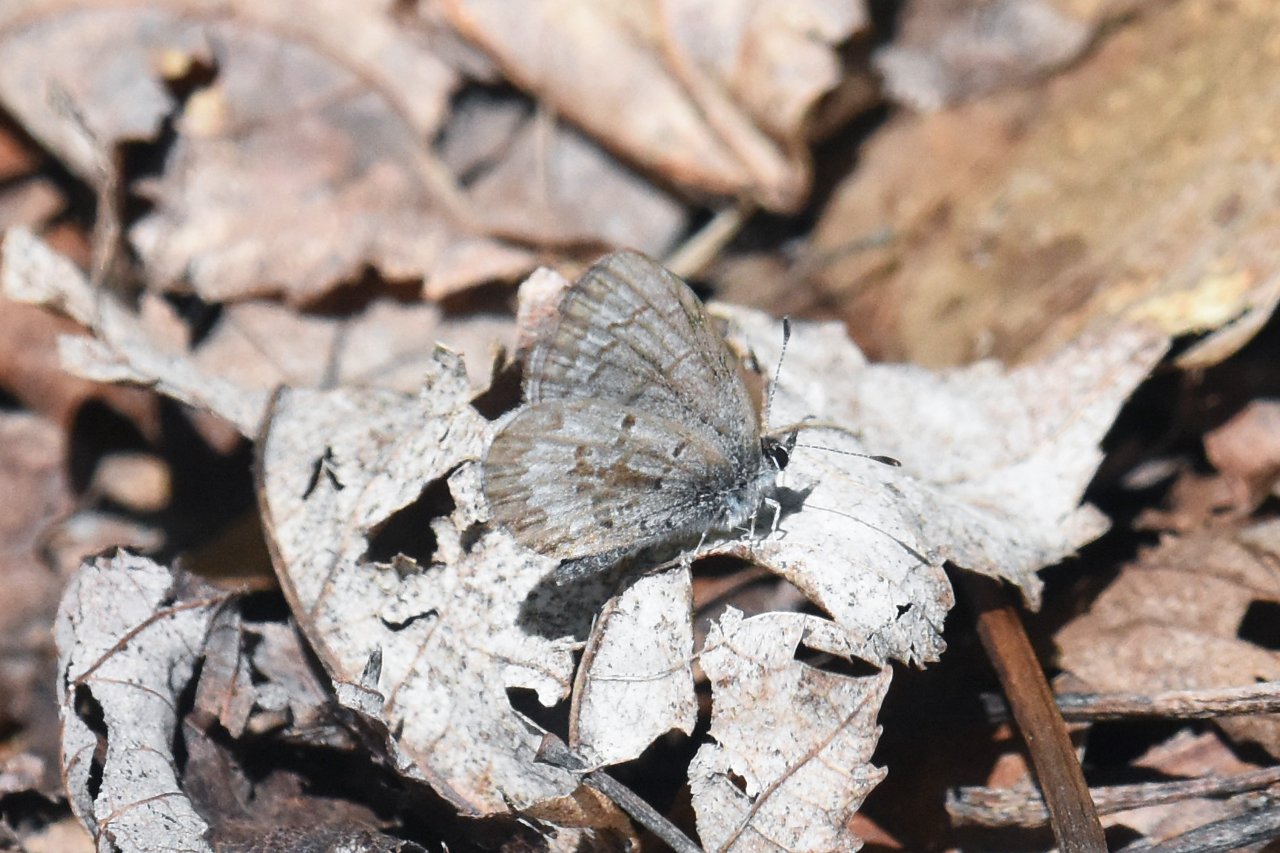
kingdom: Animalia
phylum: Arthropoda
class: Insecta
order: Lepidoptera
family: Lycaenidae
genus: Celastrina
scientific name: Celastrina lucia
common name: Northern Spring Azure
